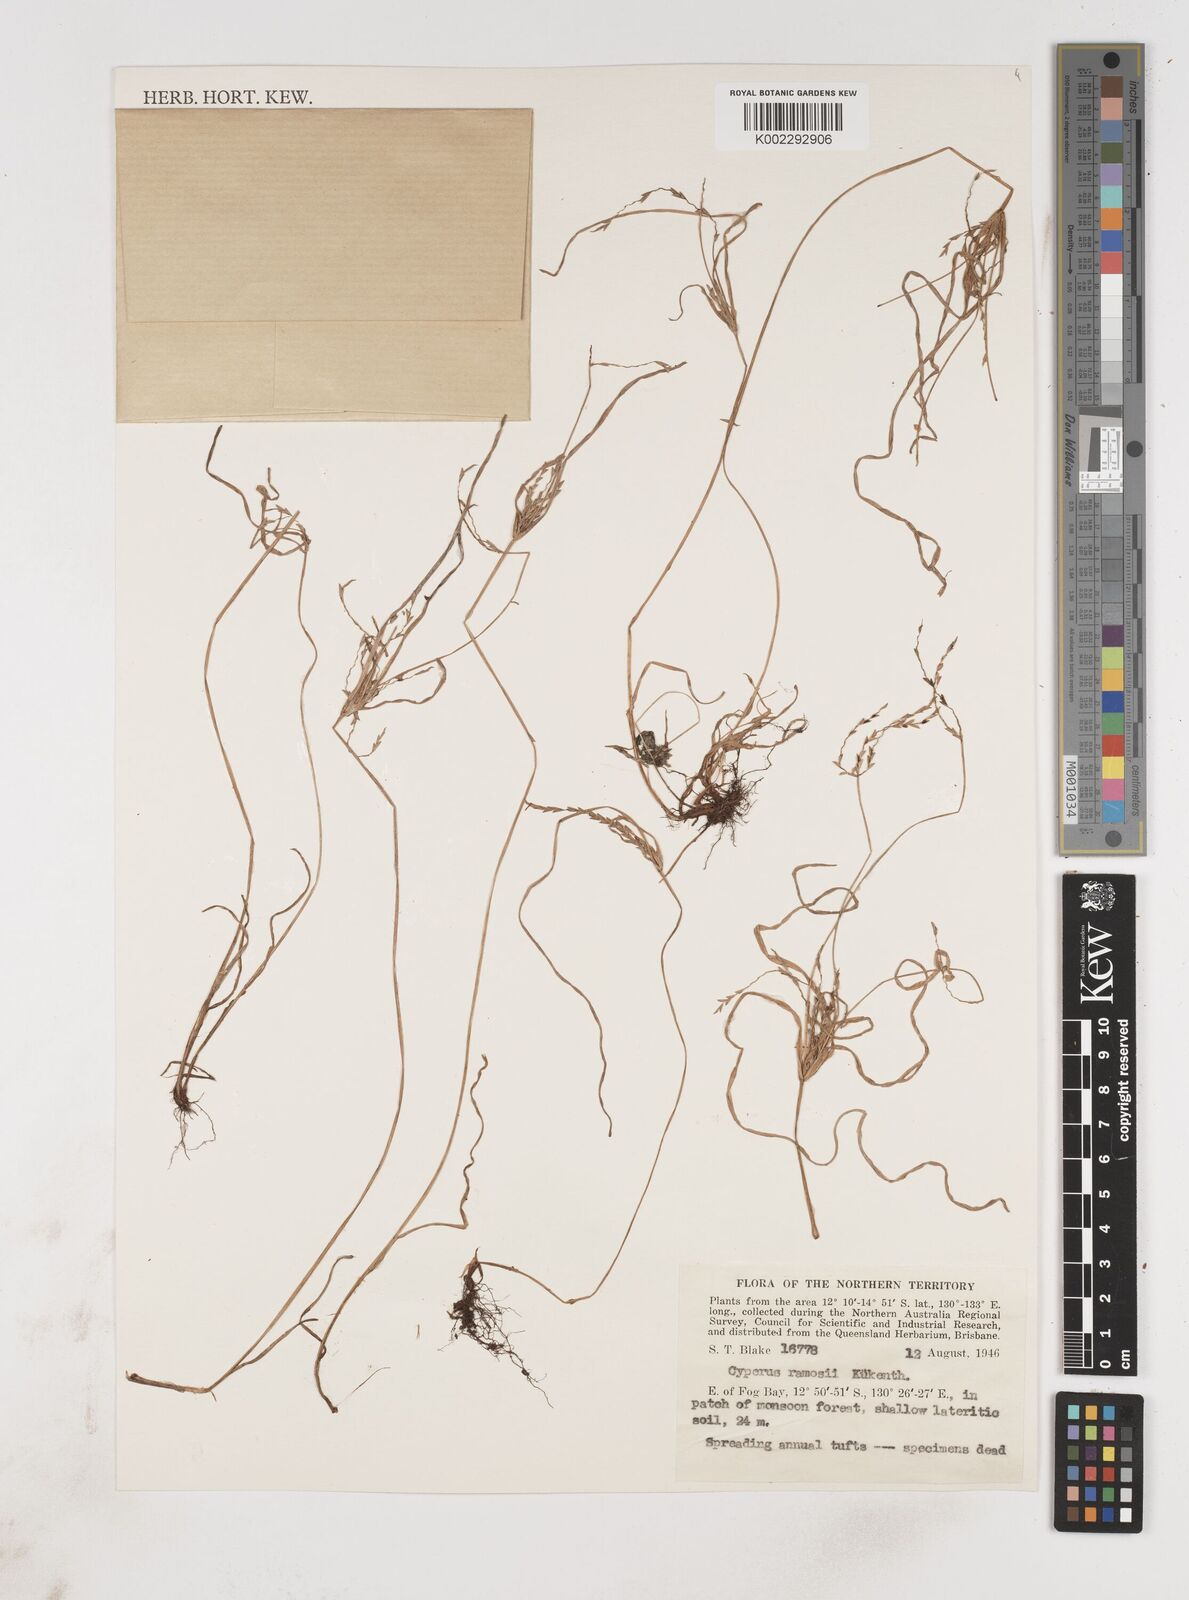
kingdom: Plantae
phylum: Tracheophyta
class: Liliopsida
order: Poales
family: Cyperaceae
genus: Cyperus
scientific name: Cyperus zollingeri
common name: Roadside flatsedge
